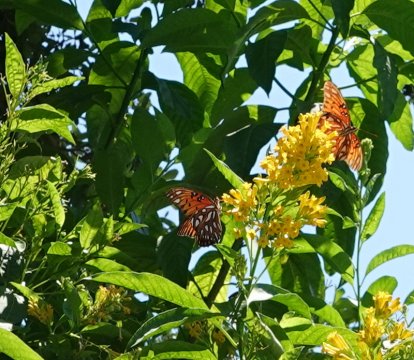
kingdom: Animalia
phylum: Arthropoda
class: Insecta
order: Lepidoptera
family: Nymphalidae
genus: Dione
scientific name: Dione vanillae
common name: Gulf Fritillary
